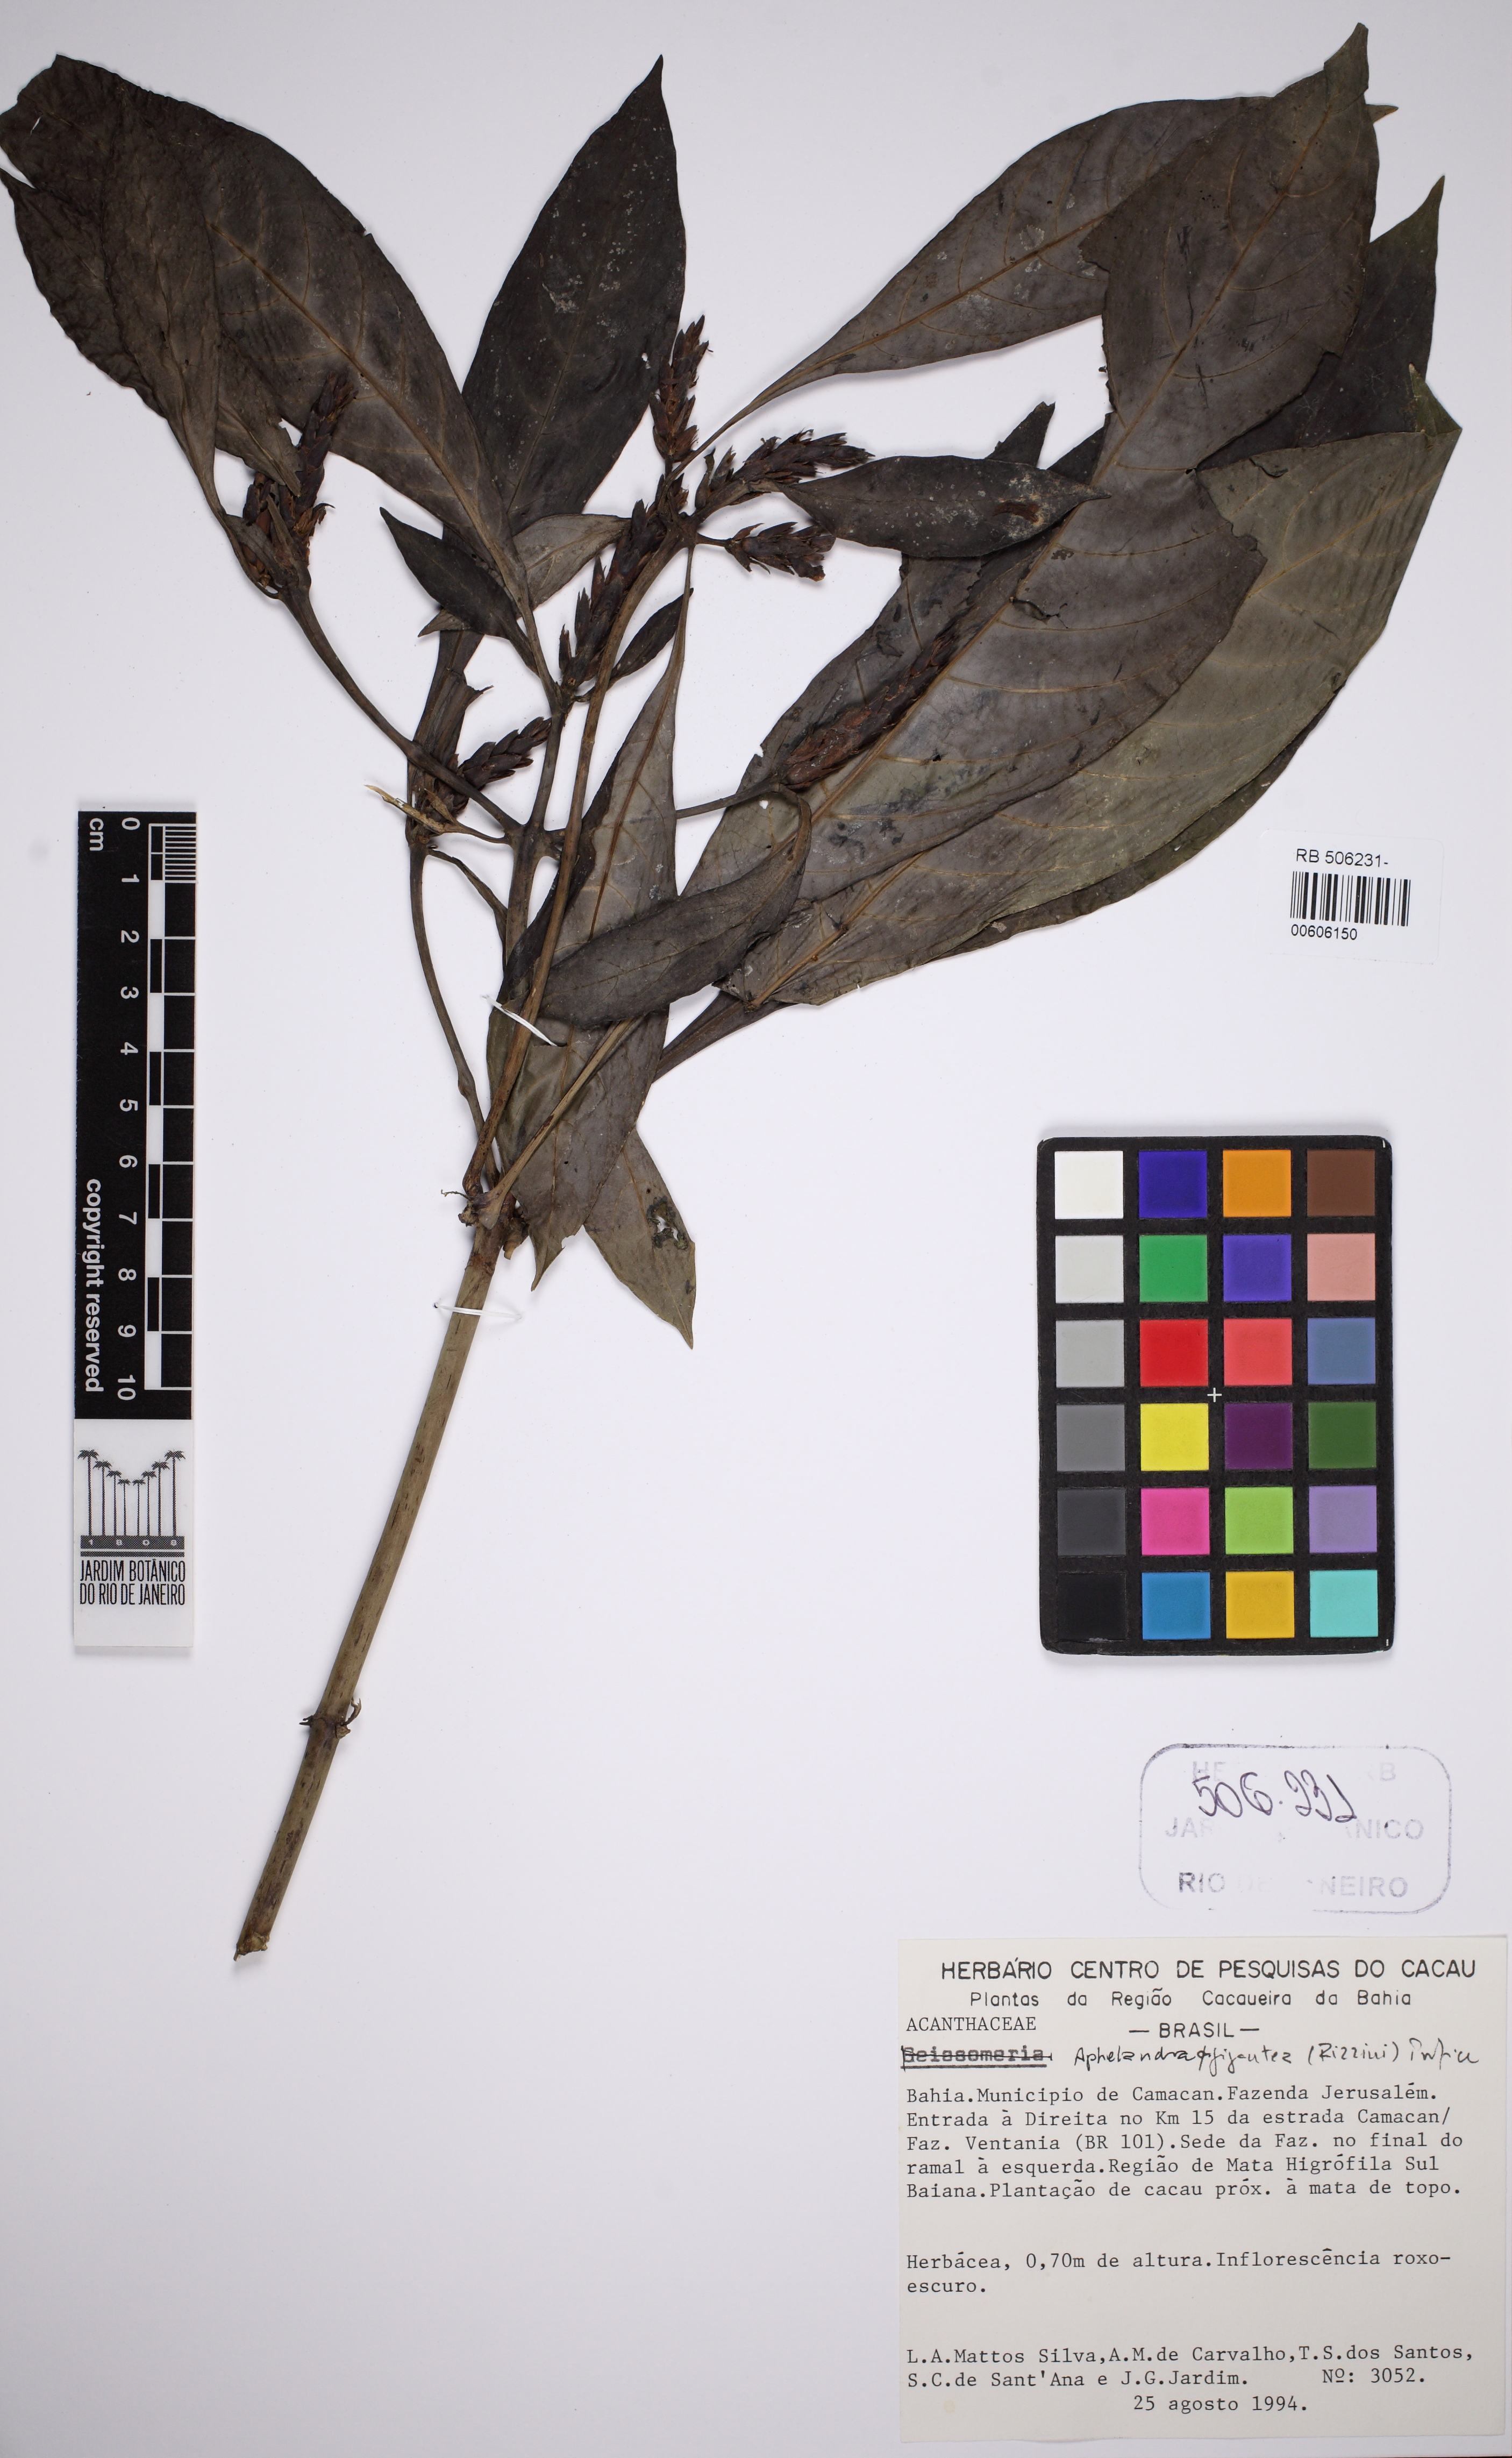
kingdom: Plantae
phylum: Tracheophyta
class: Magnoliopsida
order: Lamiales
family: Acanthaceae
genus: Aphelandra
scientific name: Aphelandra gigantea
